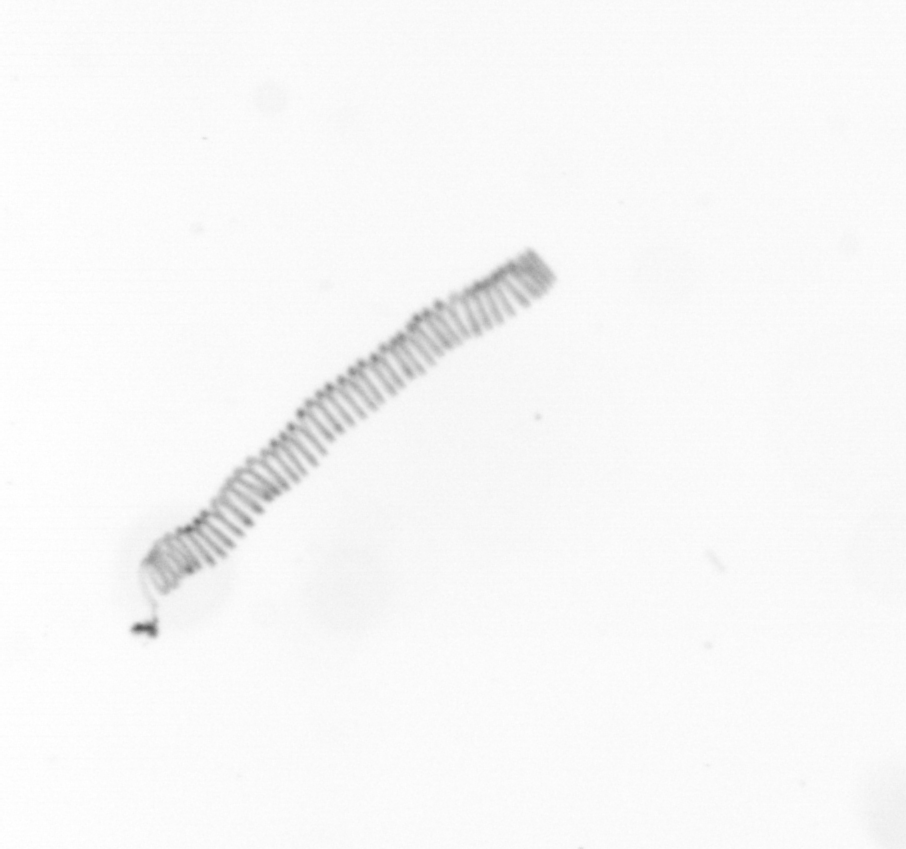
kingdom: Chromista
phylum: Ochrophyta
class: Bacillariophyceae
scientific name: Bacillariophyceae
